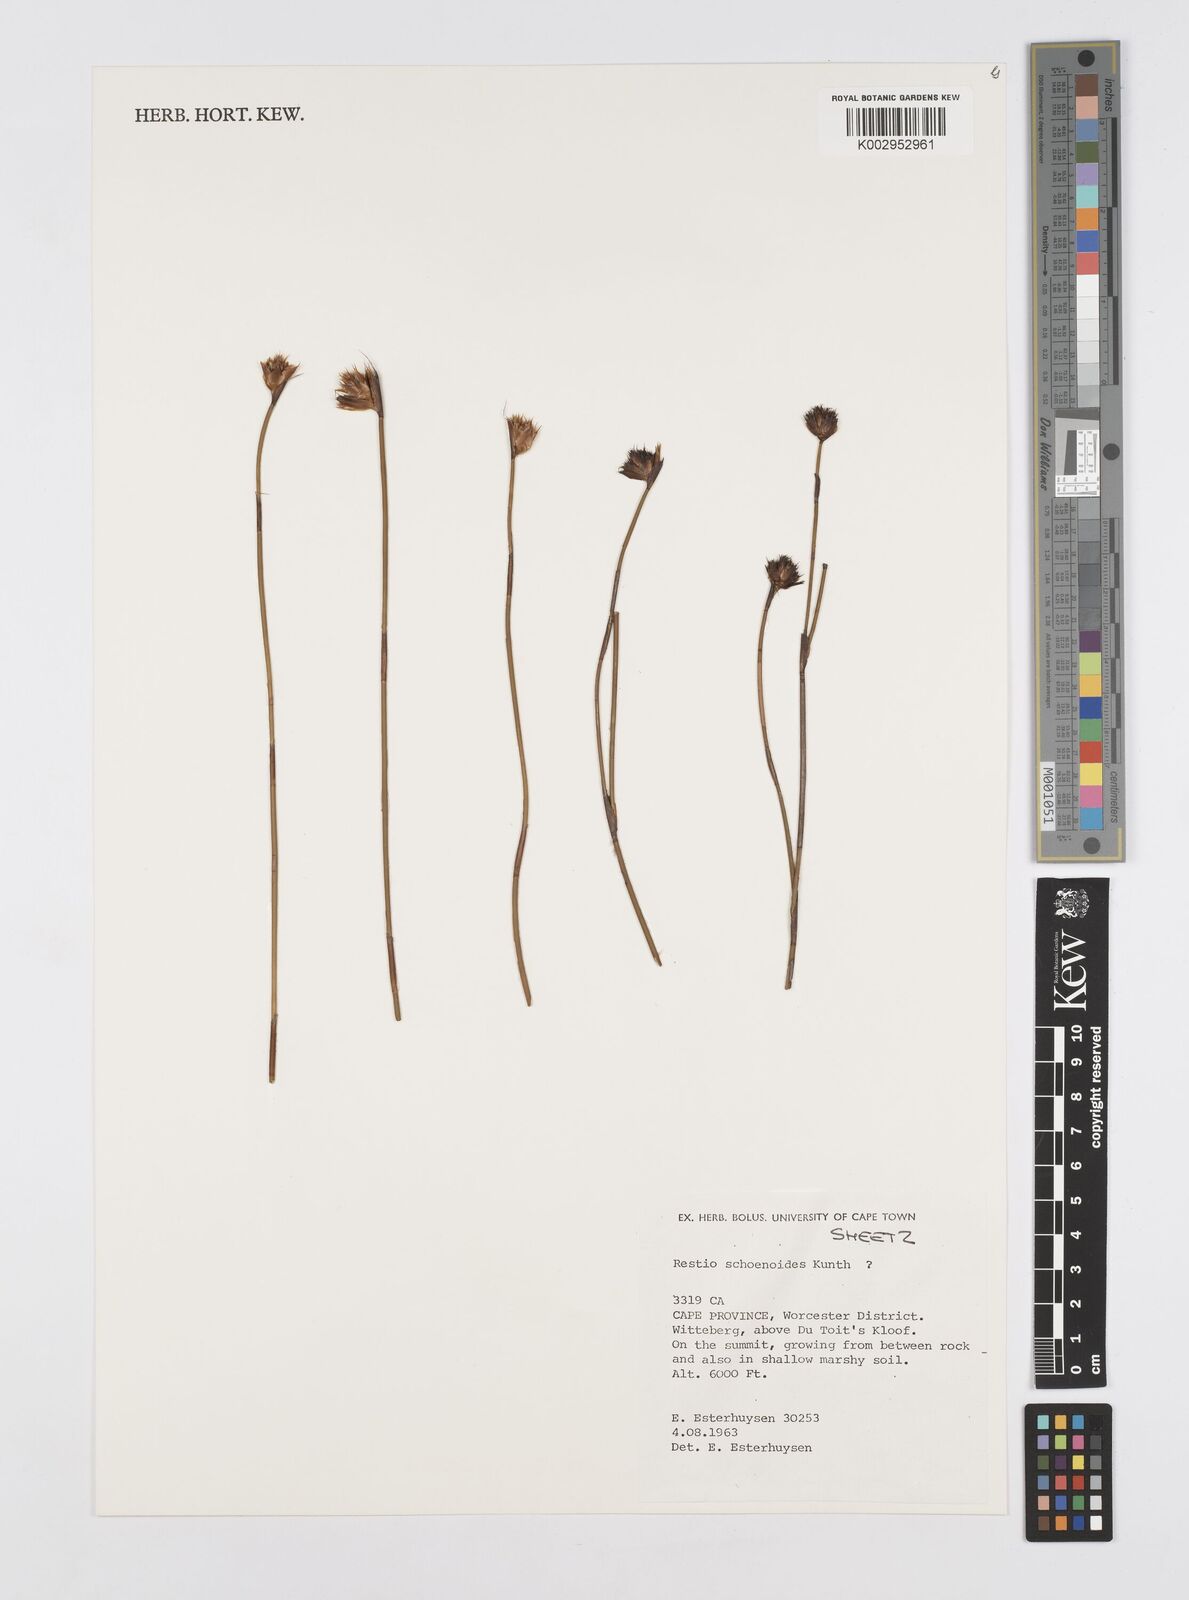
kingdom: Plantae
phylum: Tracheophyta
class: Liliopsida
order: Poales
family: Restionaceae
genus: Restio
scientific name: Restio schoenoides
